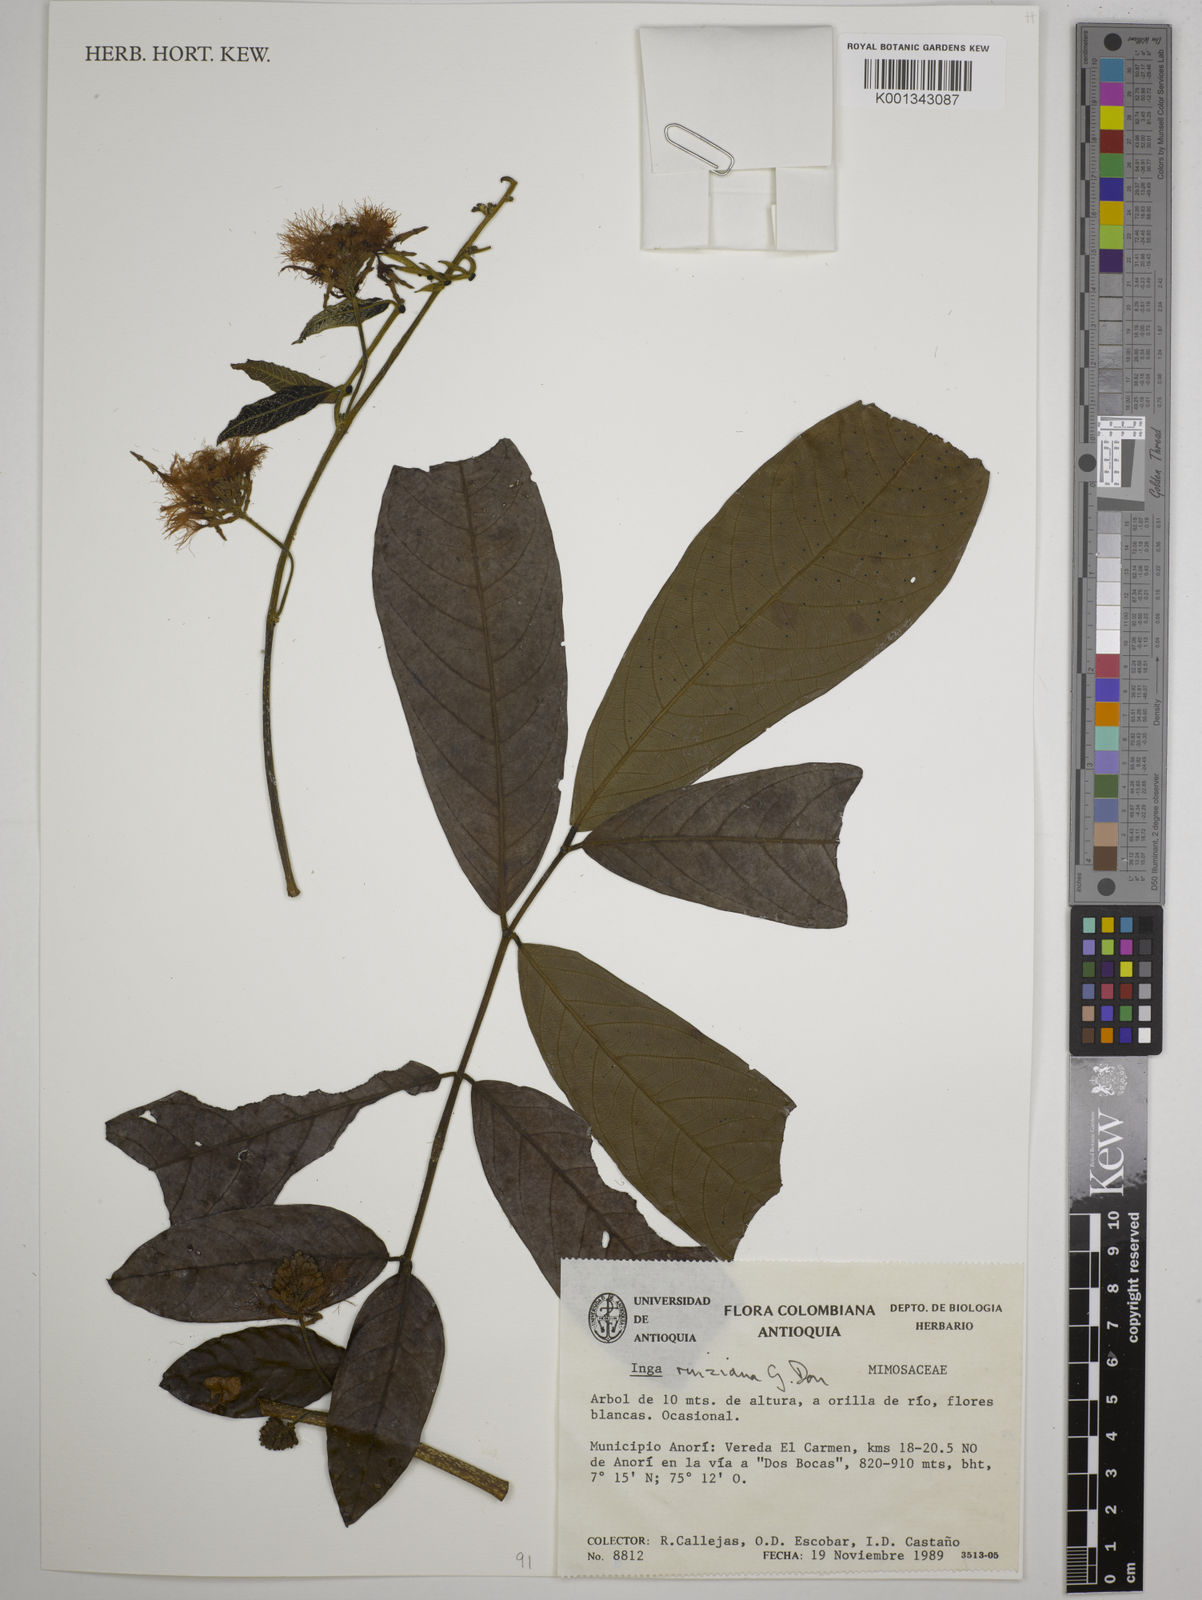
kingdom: Plantae
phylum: Tracheophyta
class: Magnoliopsida
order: Fabales
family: Fabaceae
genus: Inga
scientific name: Inga ruiziana
